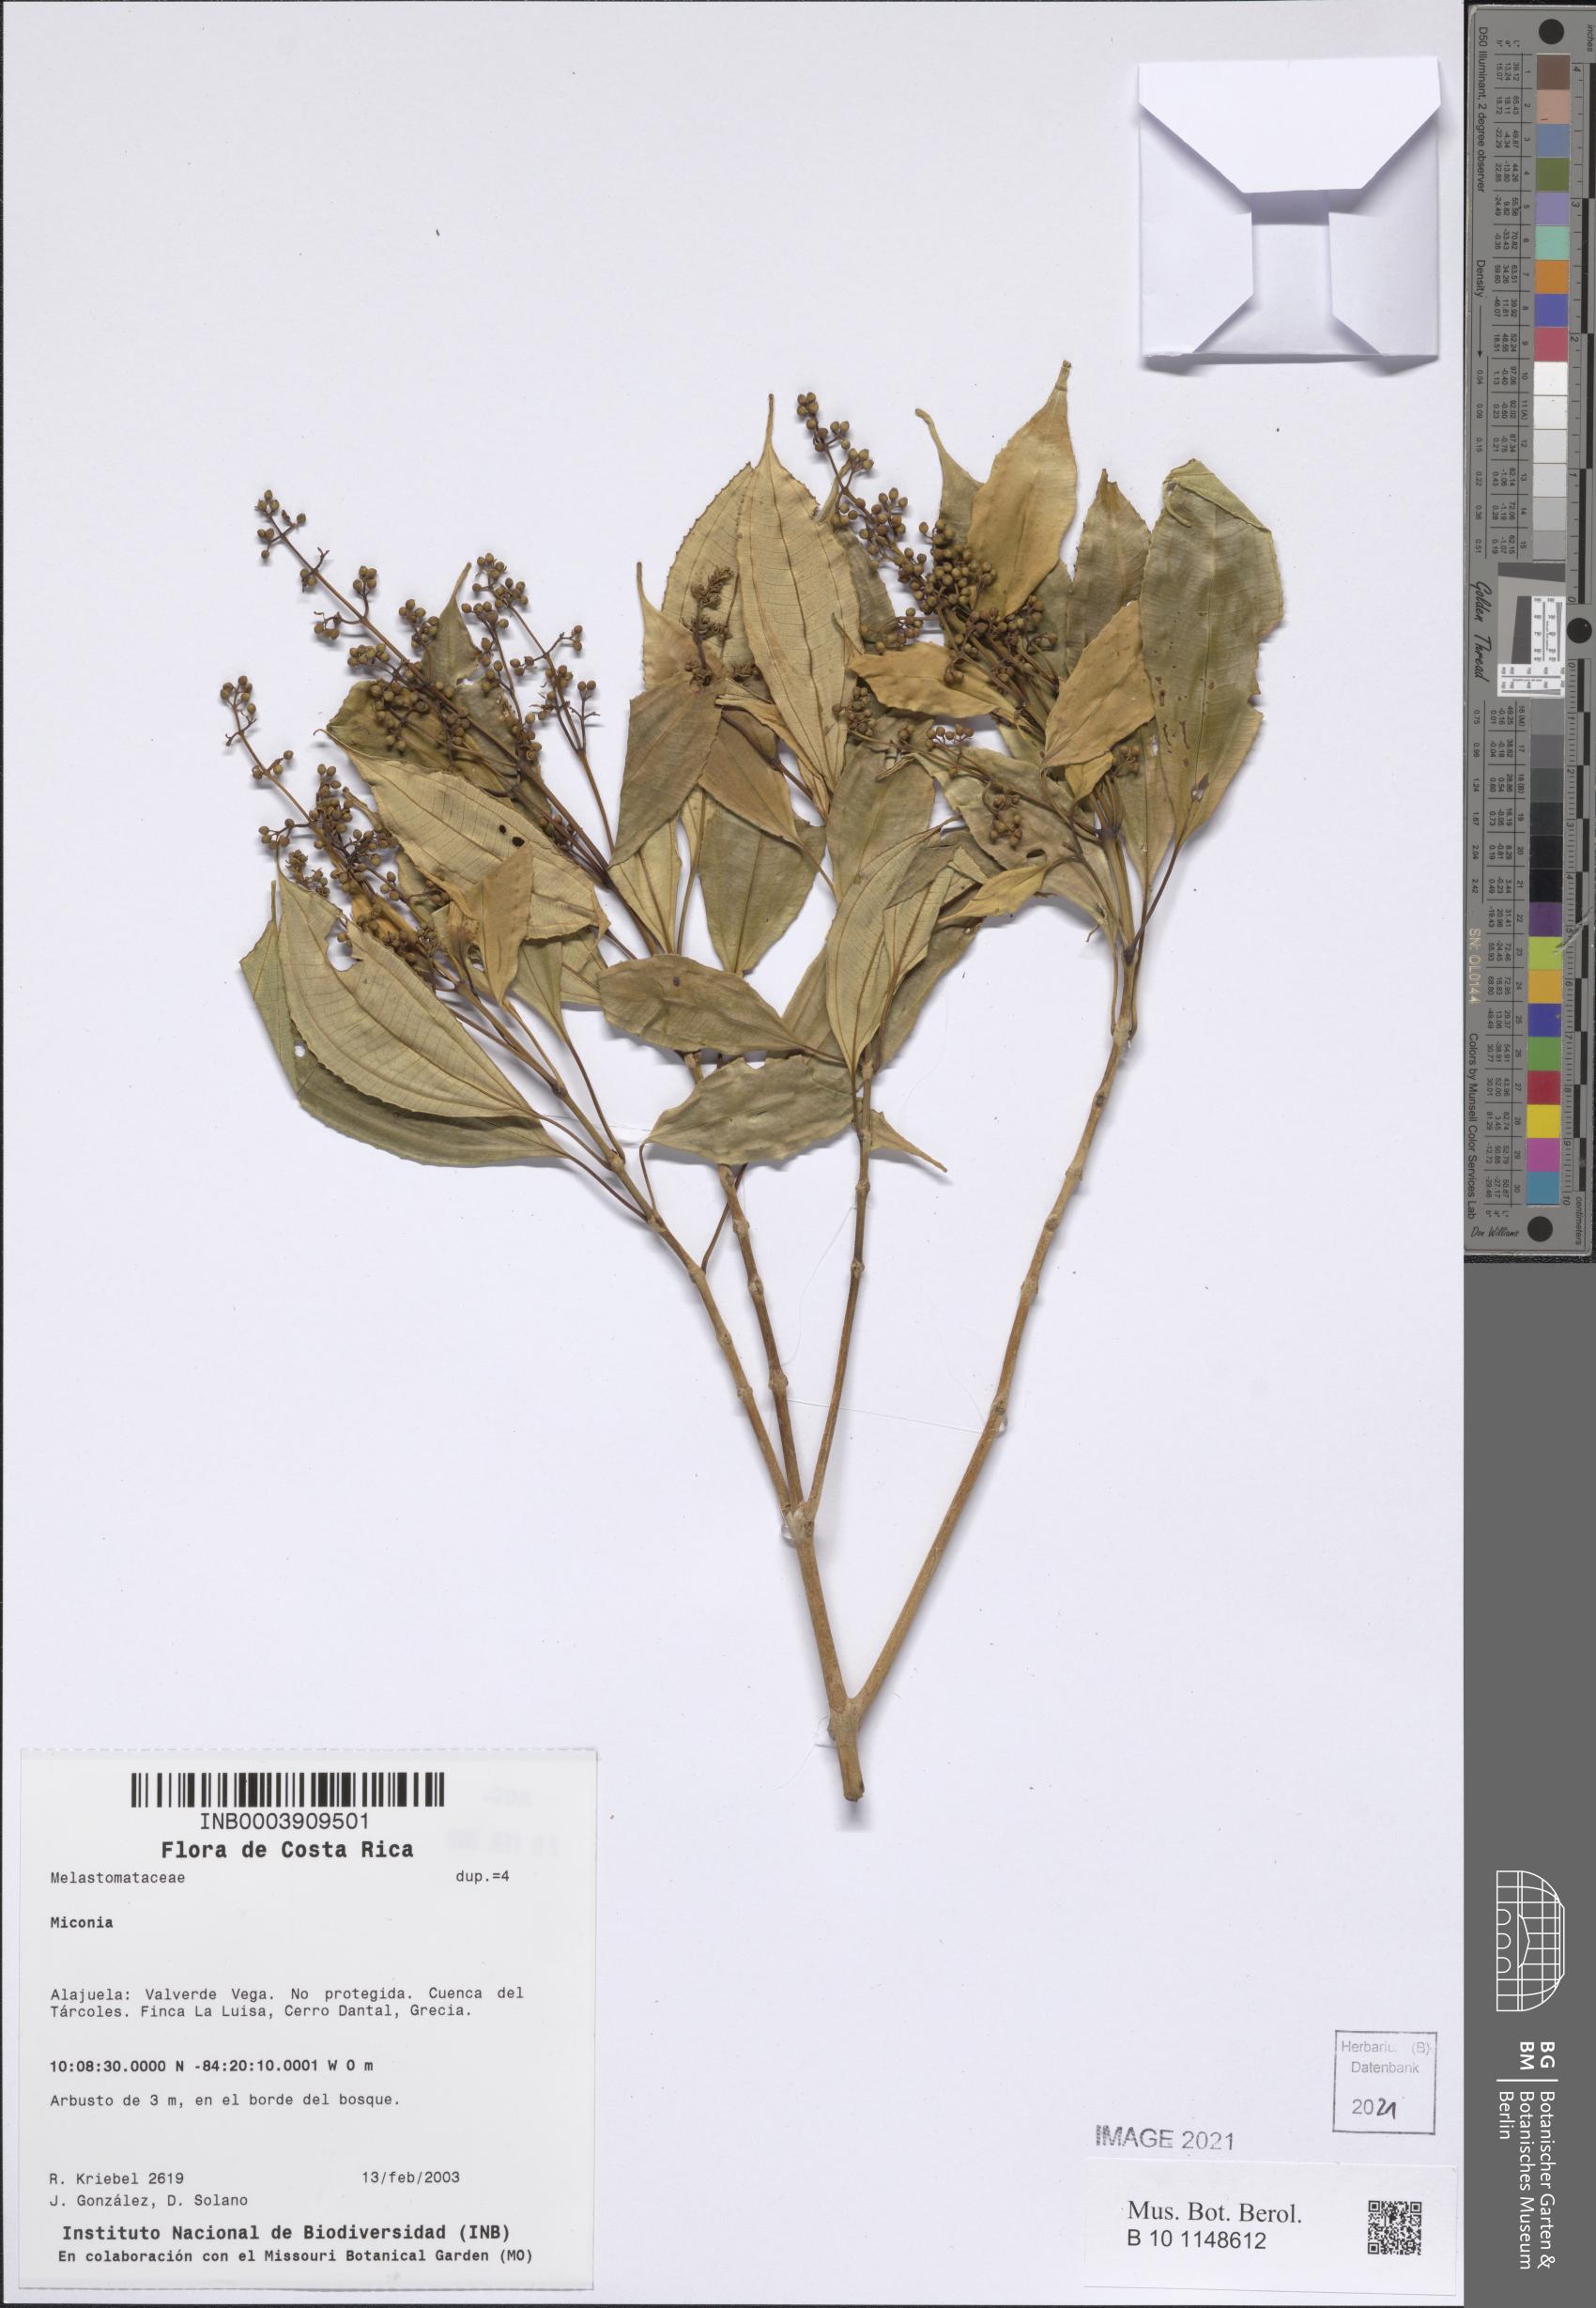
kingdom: Plantae
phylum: Tracheophyta
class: Magnoliopsida
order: Myrtales
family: Melastomataceae
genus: Miconia
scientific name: Miconia
